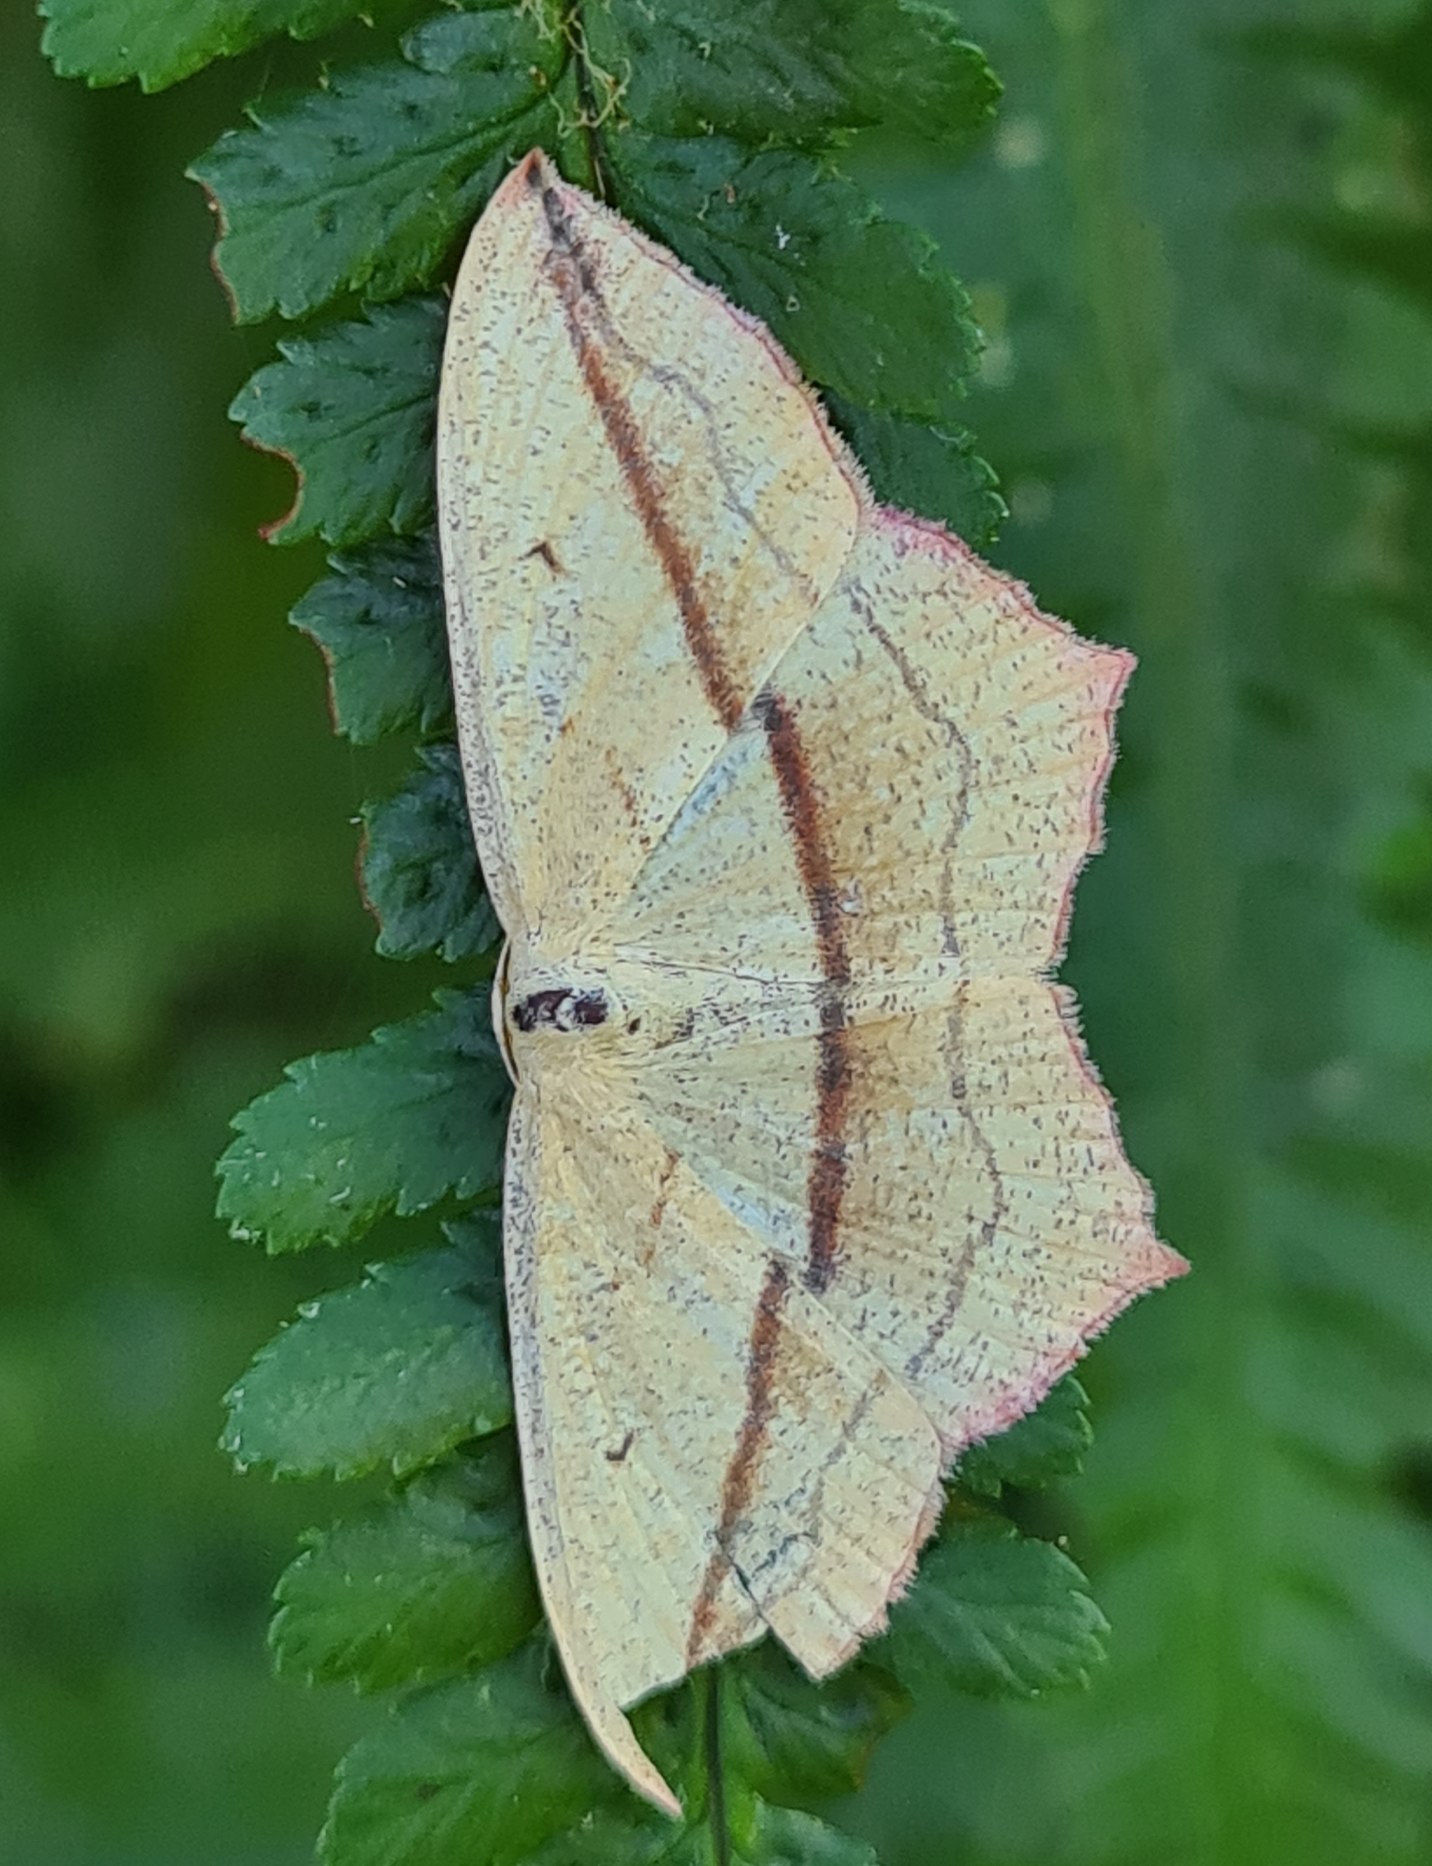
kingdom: Animalia
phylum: Arthropoda
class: Insecta
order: Lepidoptera
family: Geometridae
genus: Timandra
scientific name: Timandra comae
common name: Gul syremåler
